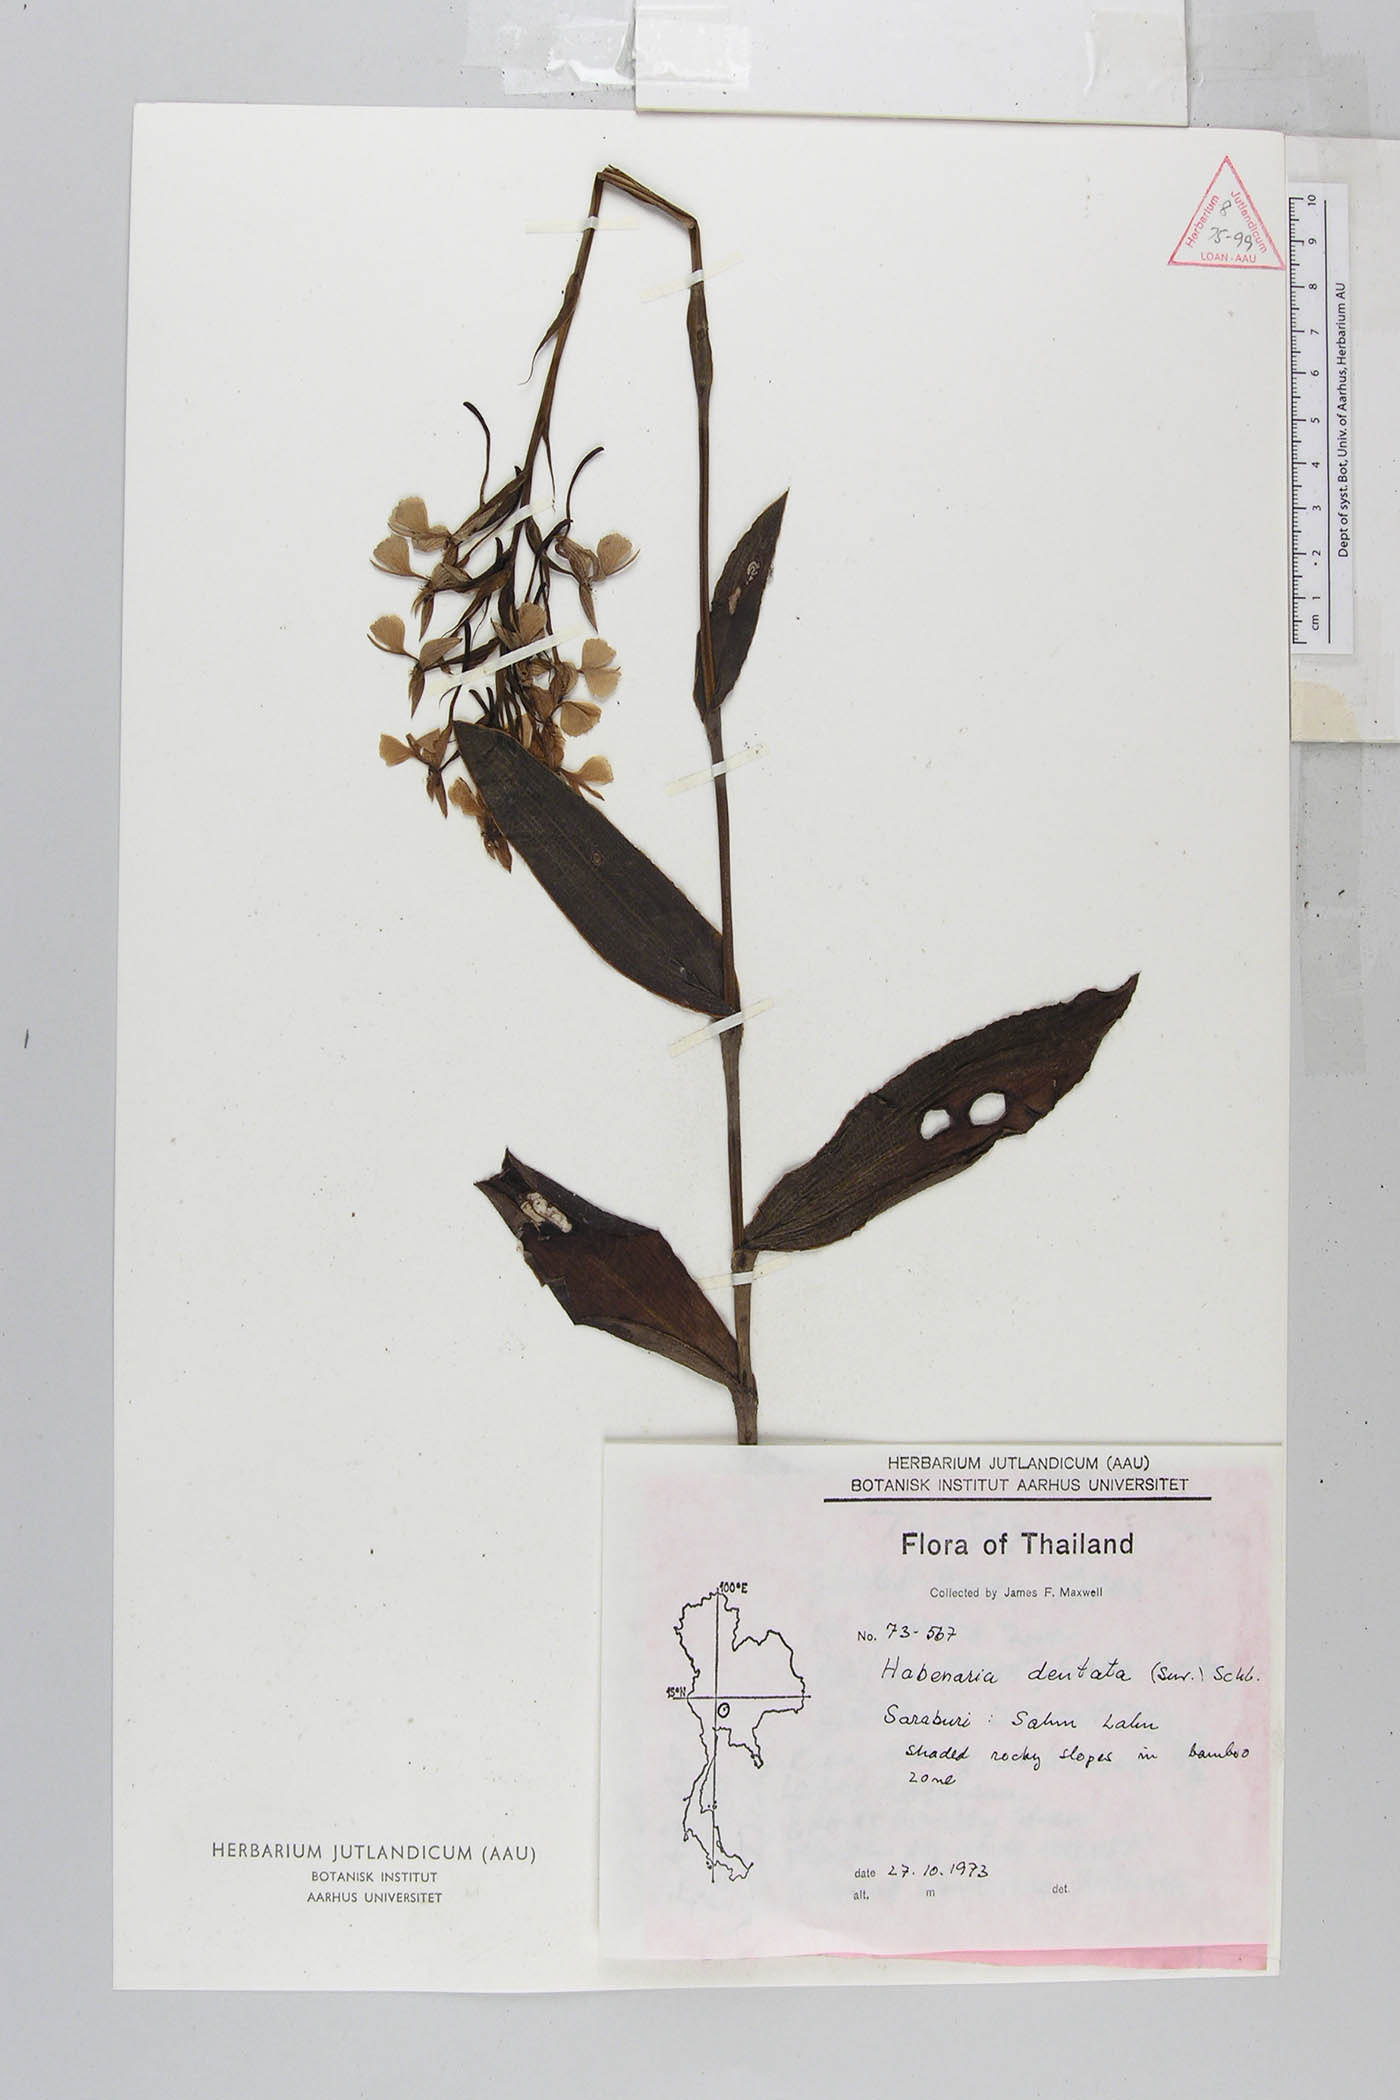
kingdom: Plantae
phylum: Tracheophyta
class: Liliopsida
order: Asparagales
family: Orchidaceae
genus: Habenaria
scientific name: Habenaria dentata
